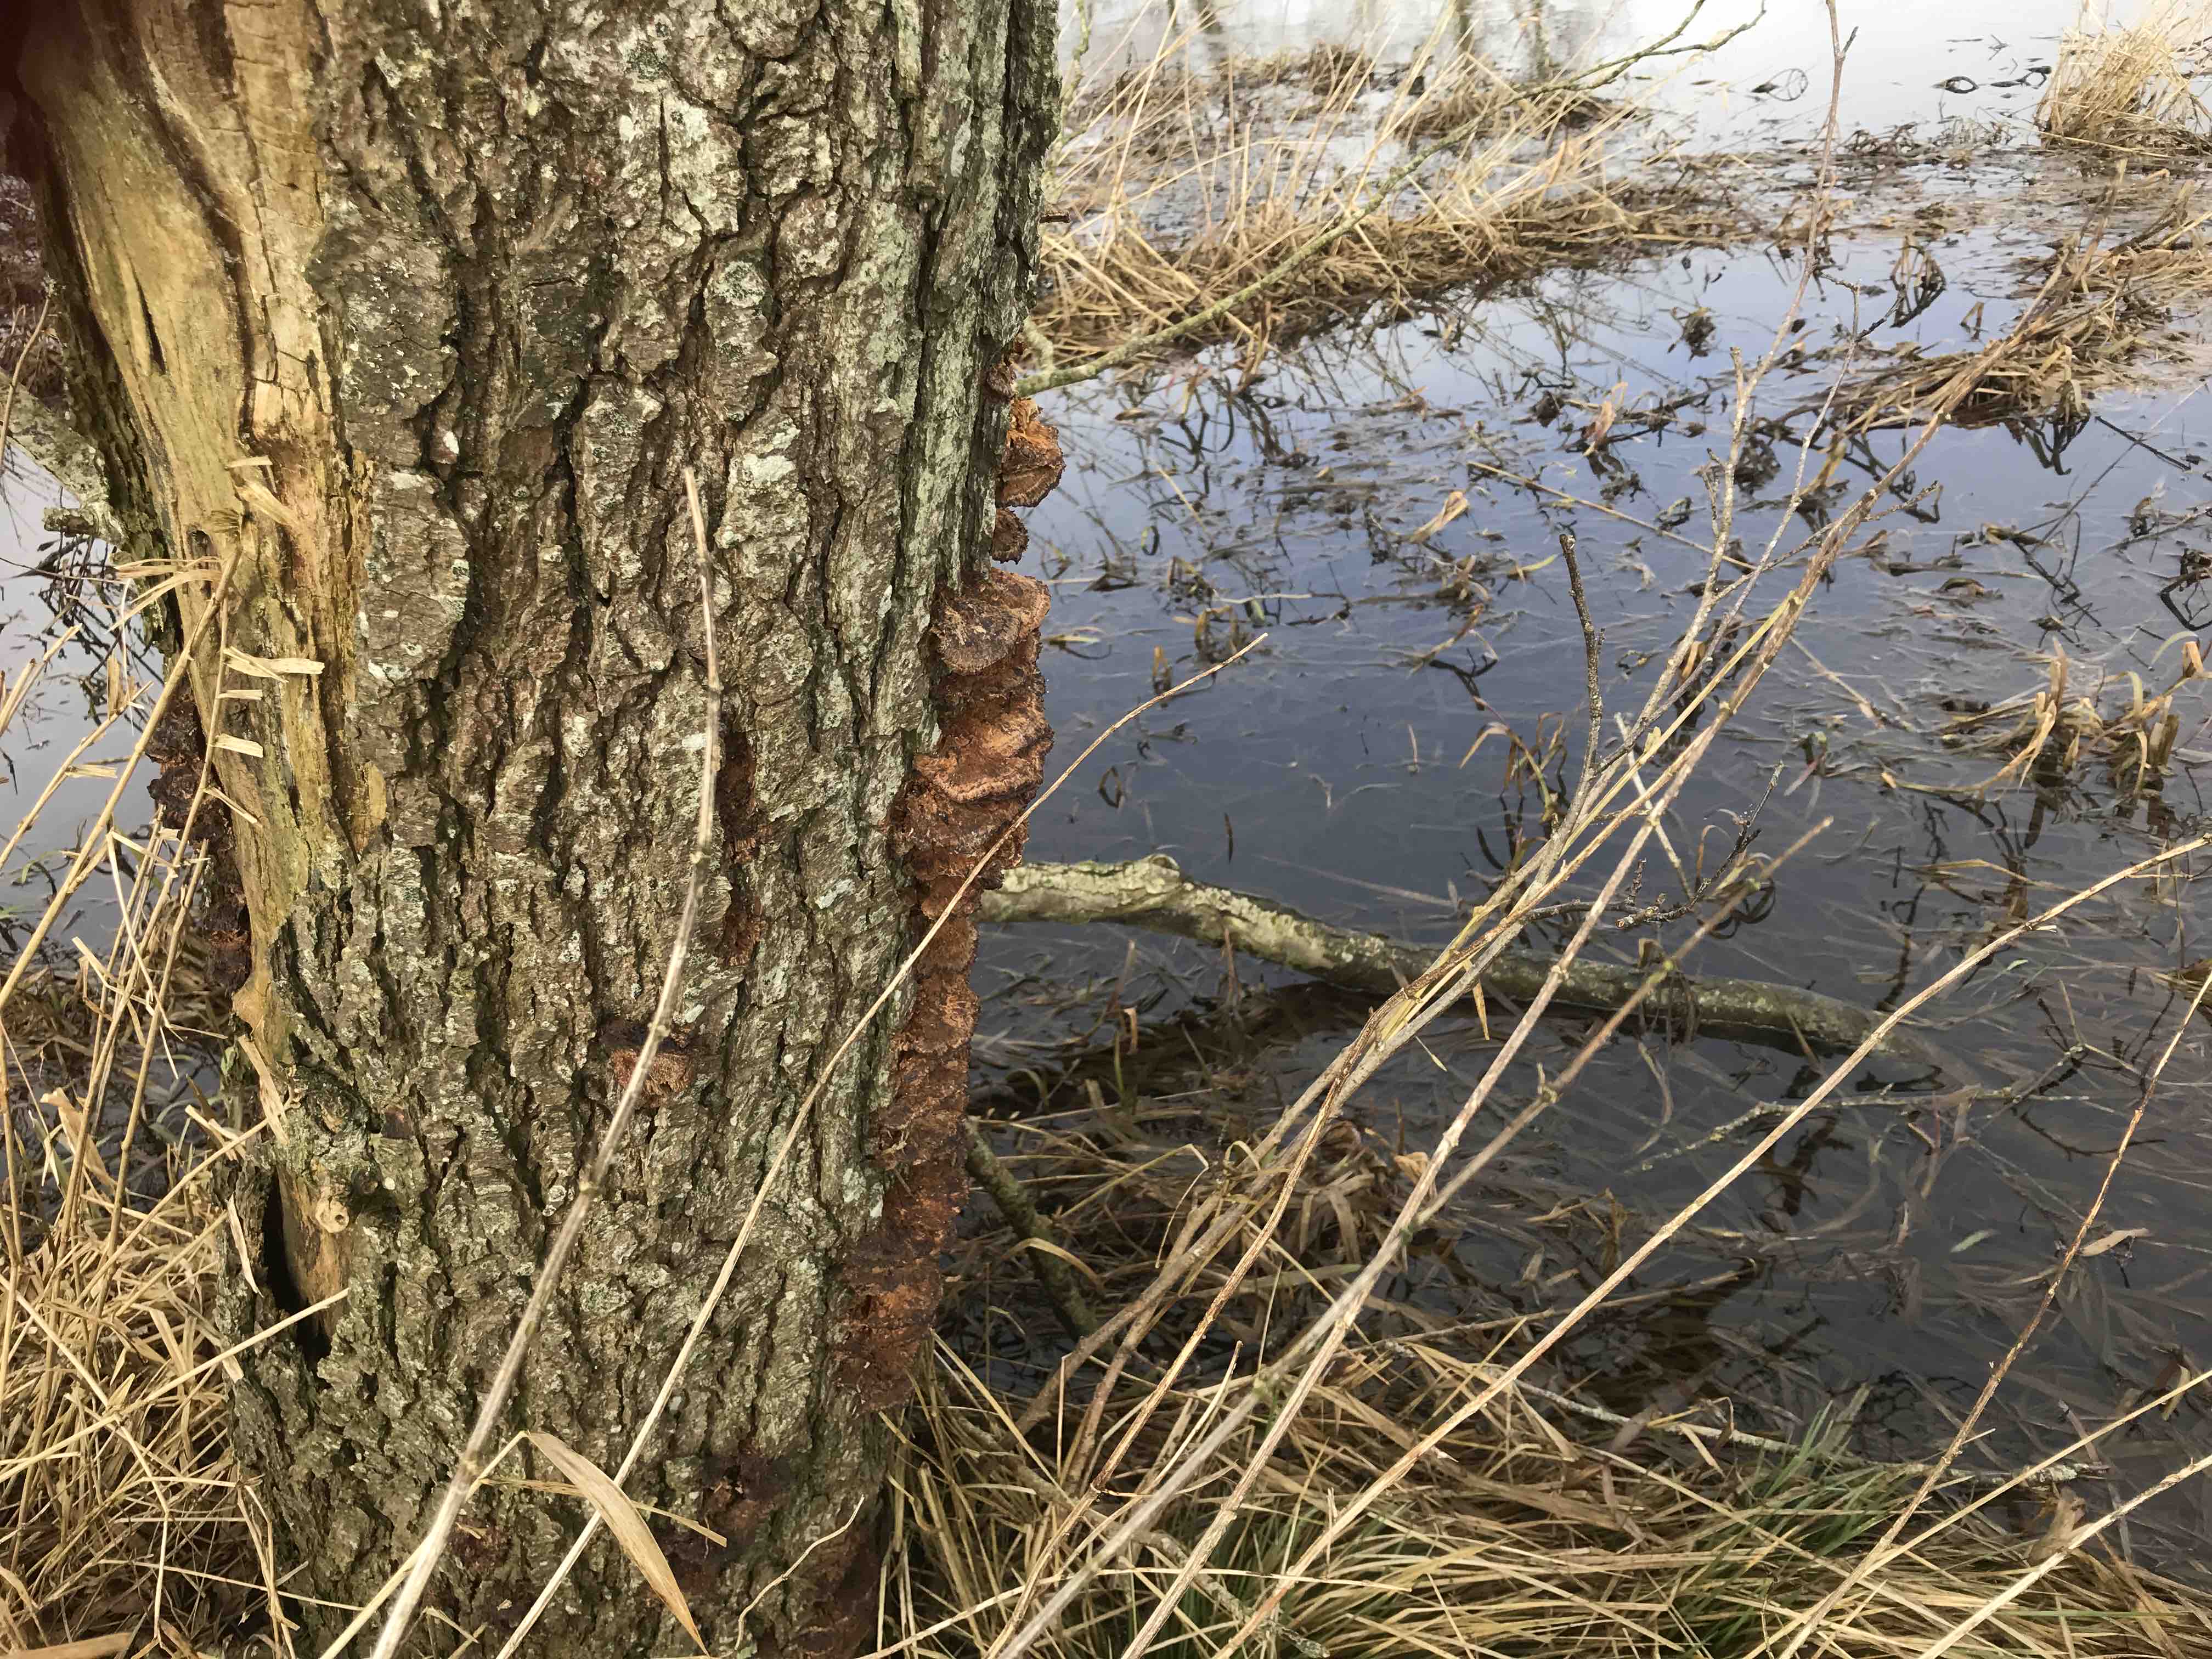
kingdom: Fungi
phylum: Basidiomycota
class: Agaricomycetes
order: Hymenochaetales
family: Hymenochaetaceae
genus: Xanthoporia
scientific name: Xanthoporia radiata
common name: elle-spejlporesvamp
